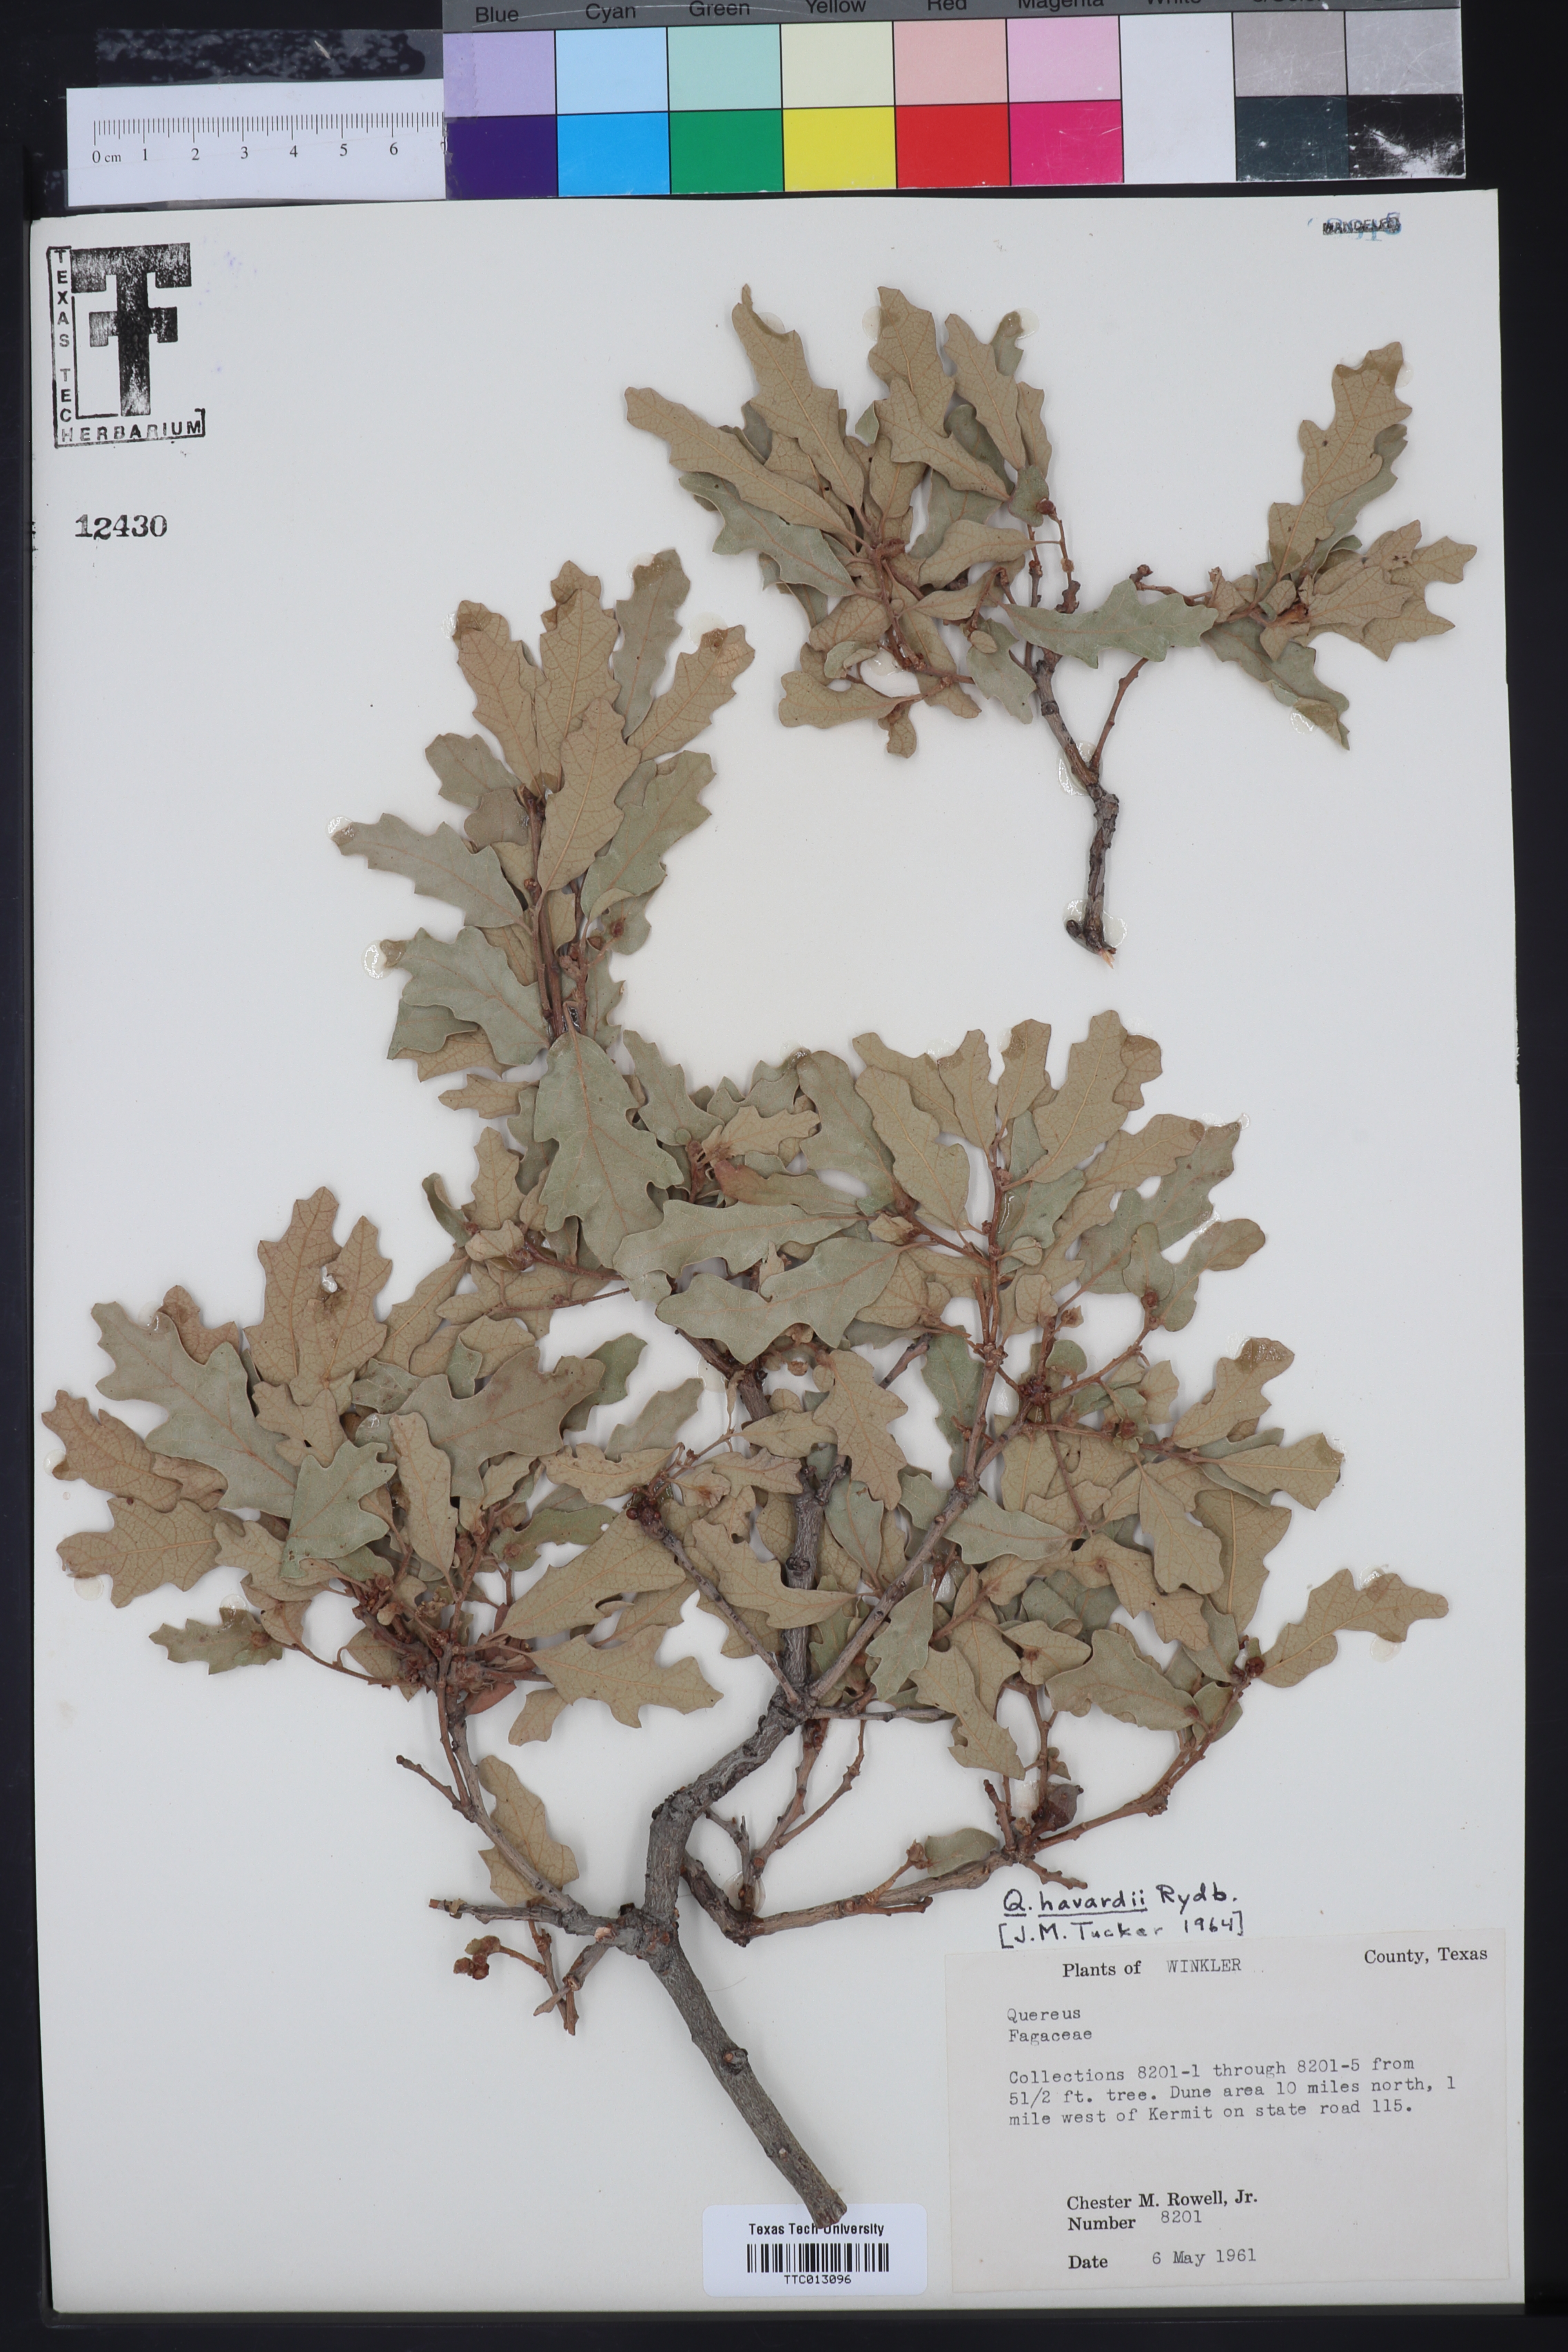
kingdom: Plantae
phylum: Tracheophyta
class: Magnoliopsida
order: Fagales
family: Fagaceae
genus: Quercus
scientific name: Quercus havardii
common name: Shinnery oak
